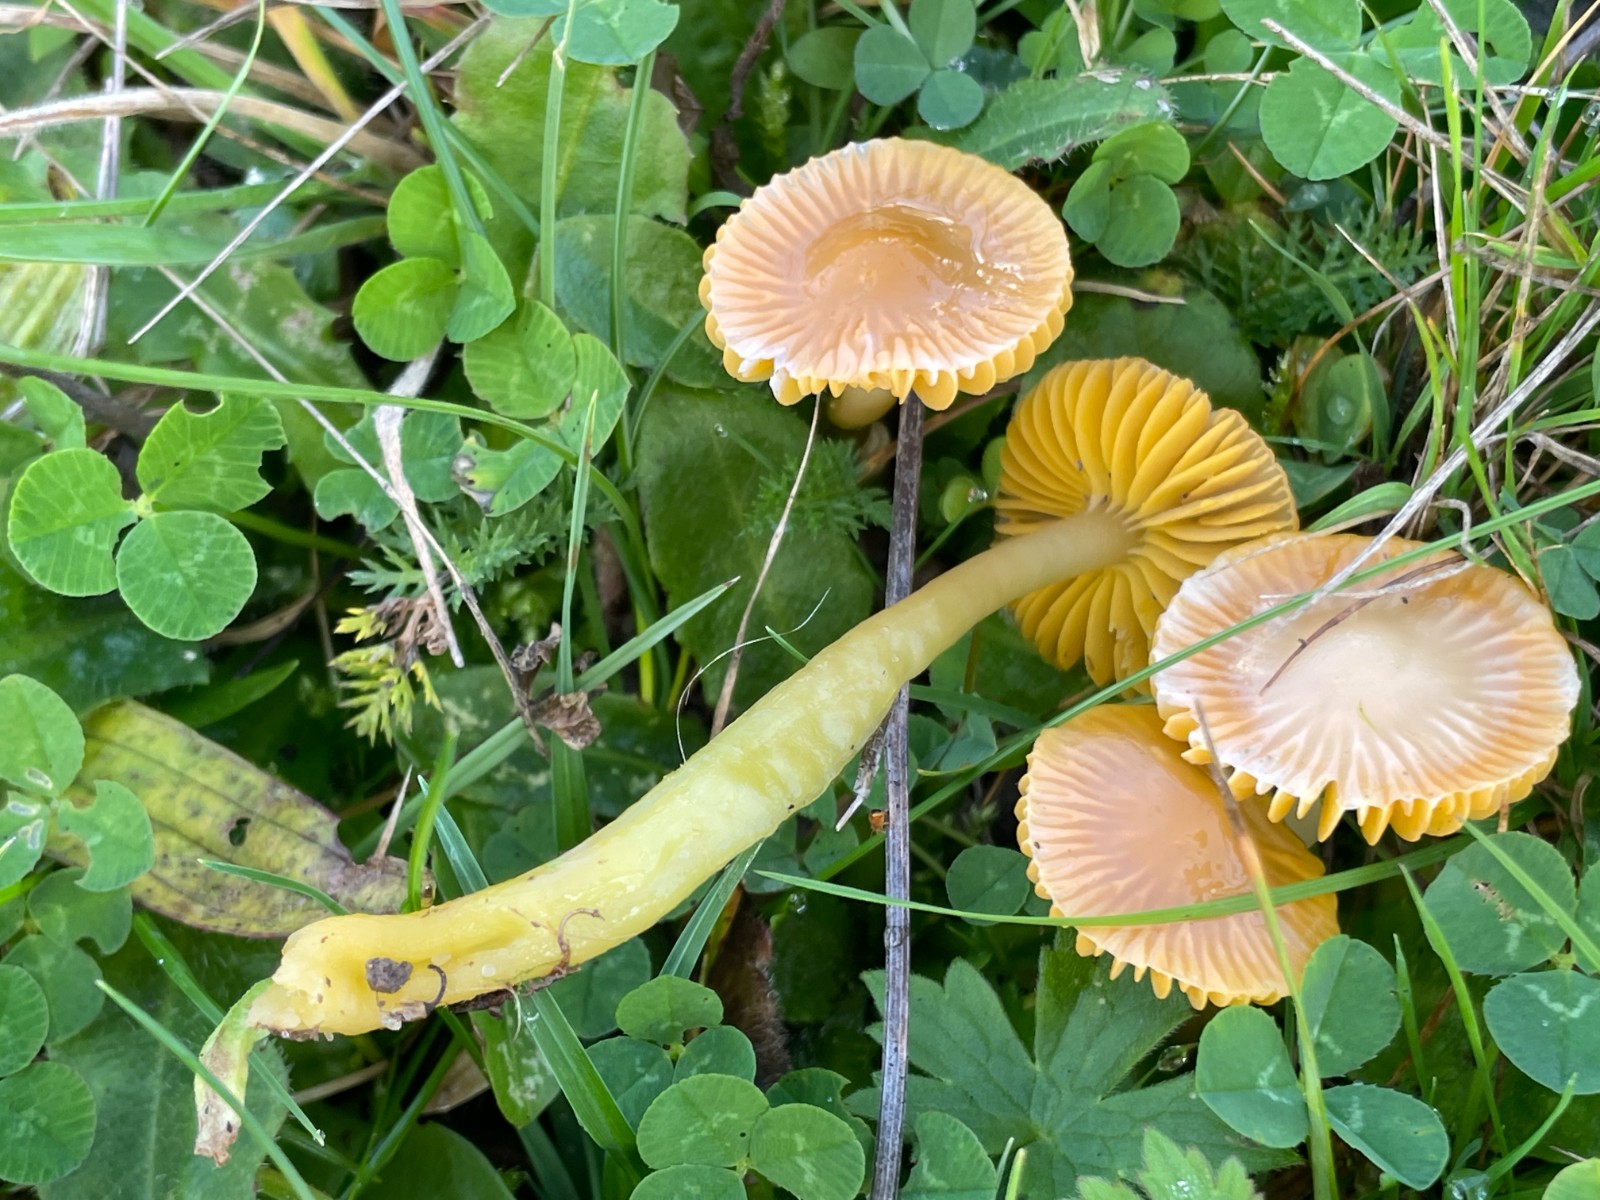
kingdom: Fungi
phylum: Basidiomycota
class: Agaricomycetes
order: Agaricales
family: Hygrophoraceae
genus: Gliophorus
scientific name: Gliophorus psittacinus
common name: papegøje-vokshat
